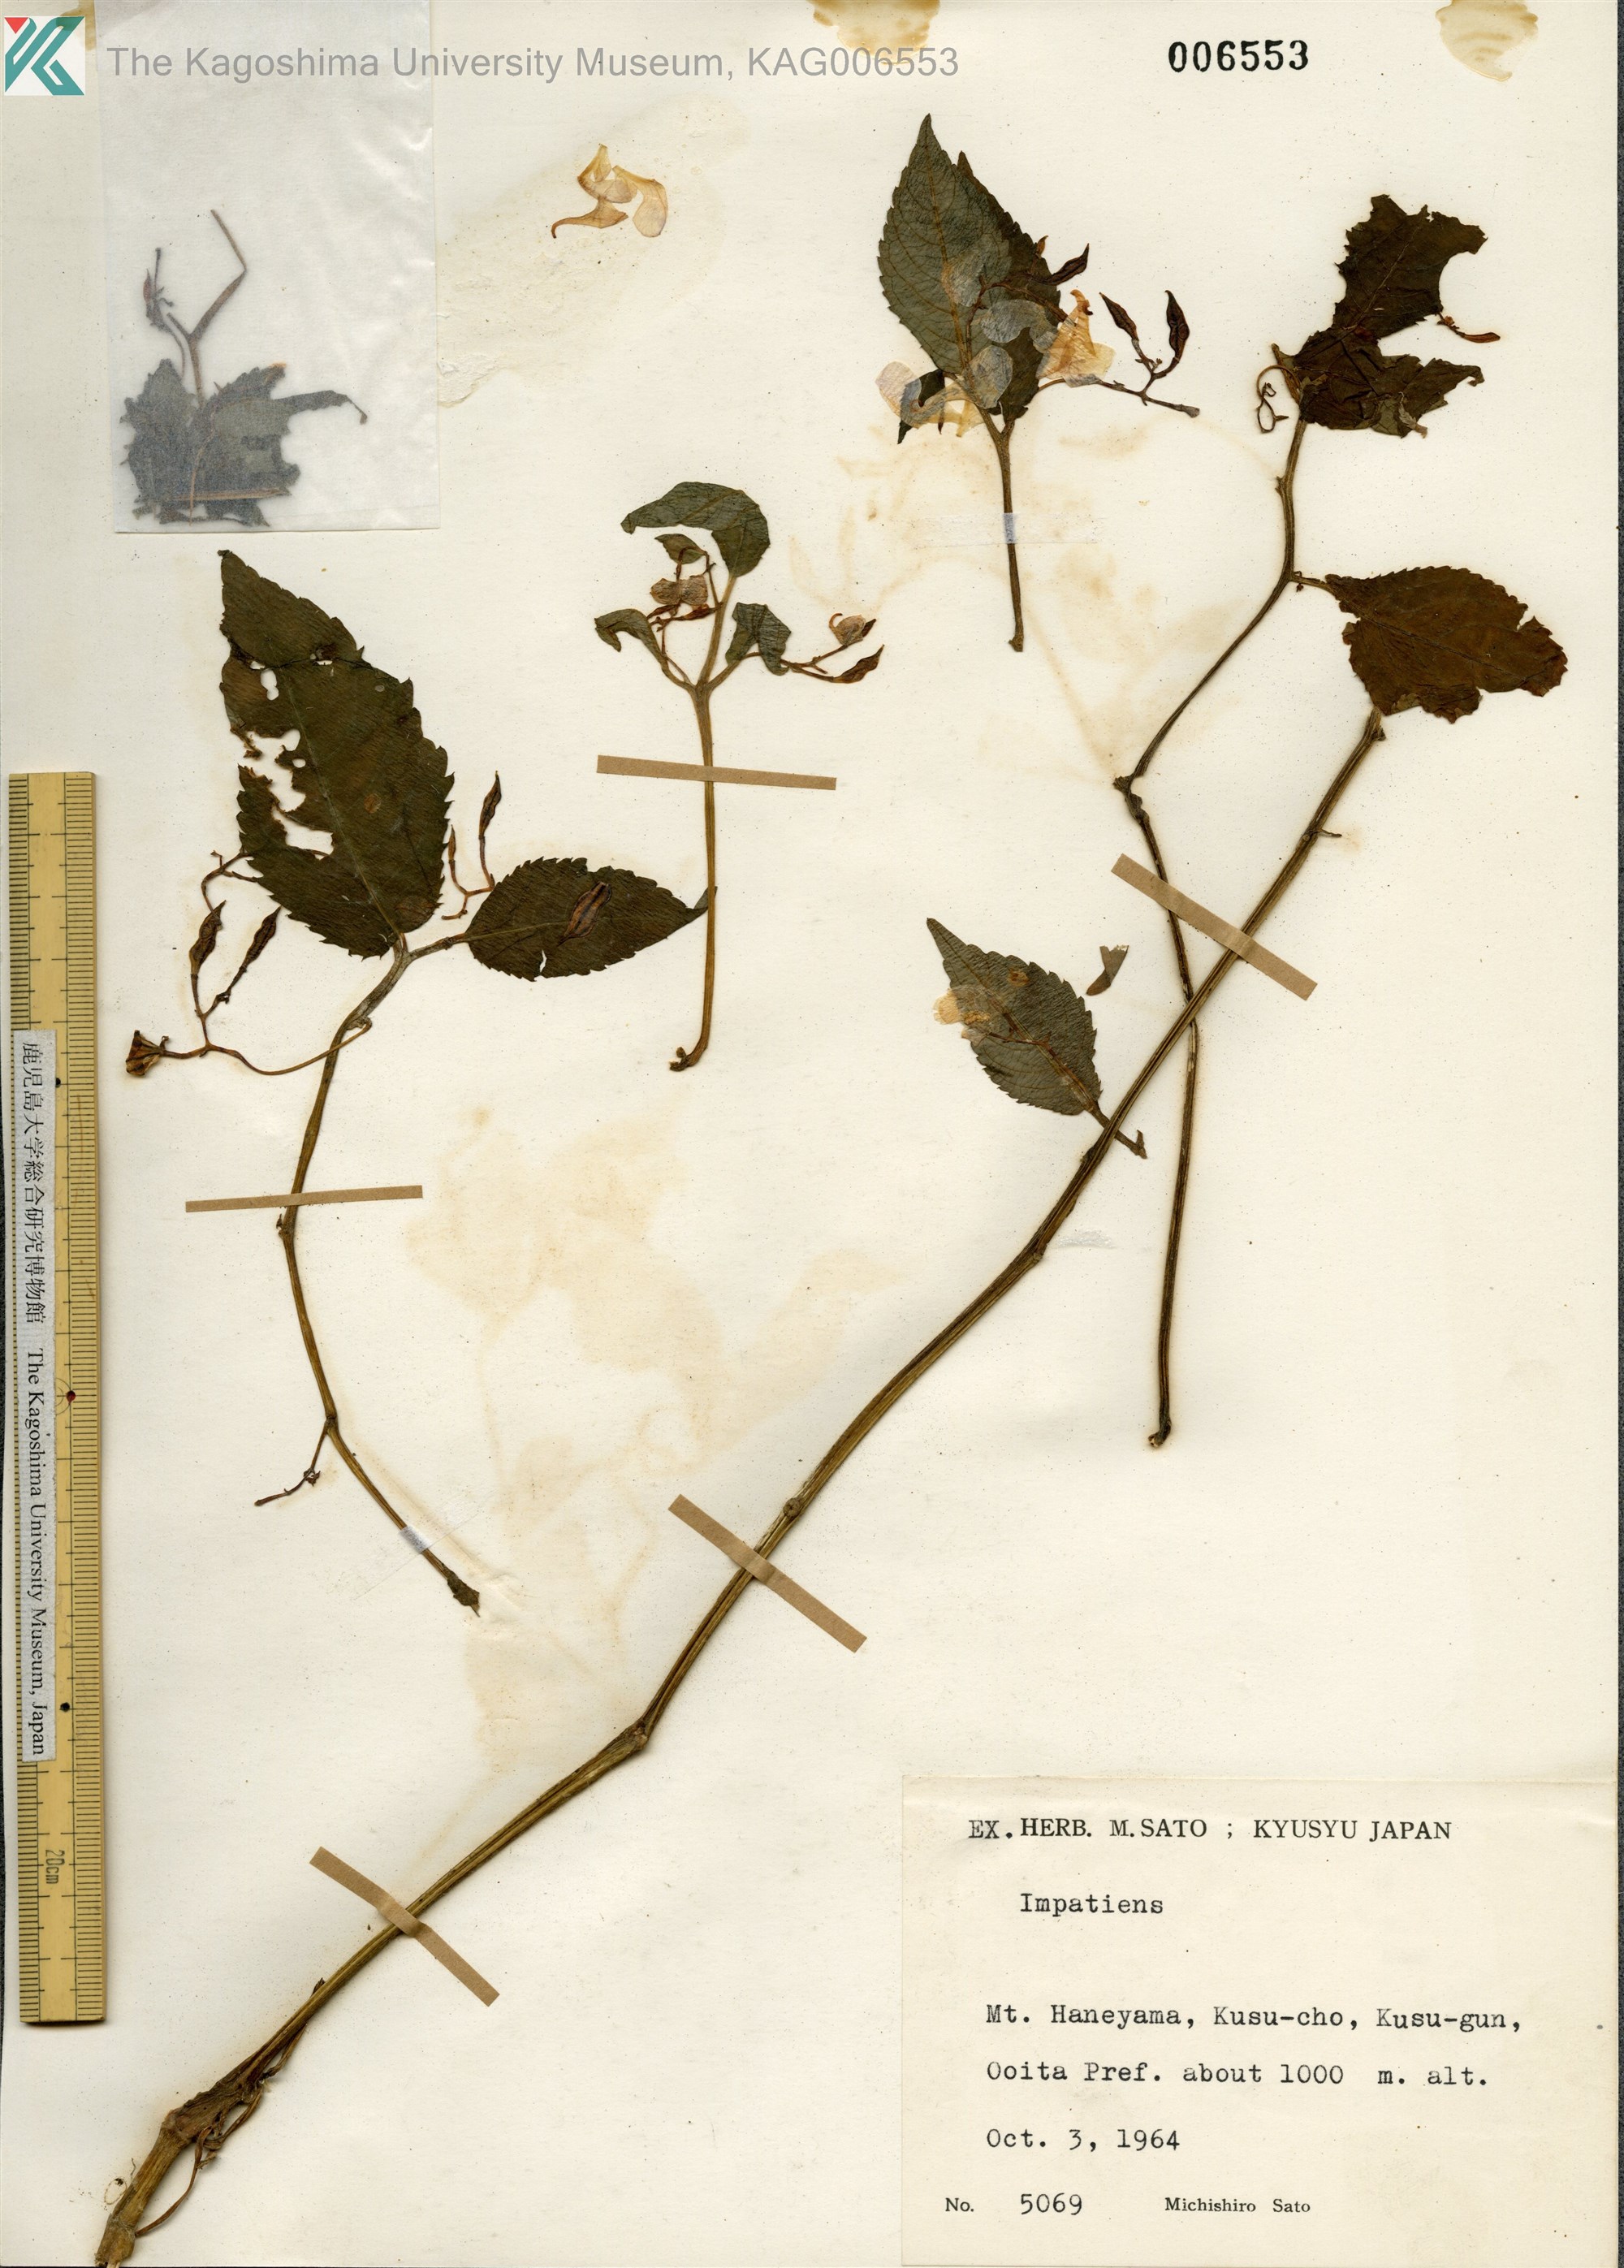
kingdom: Plantae
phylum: Tracheophyta
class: Magnoliopsida
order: Ericales
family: Balsaminaceae
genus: Impatiens
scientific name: Impatiens hypophylla
